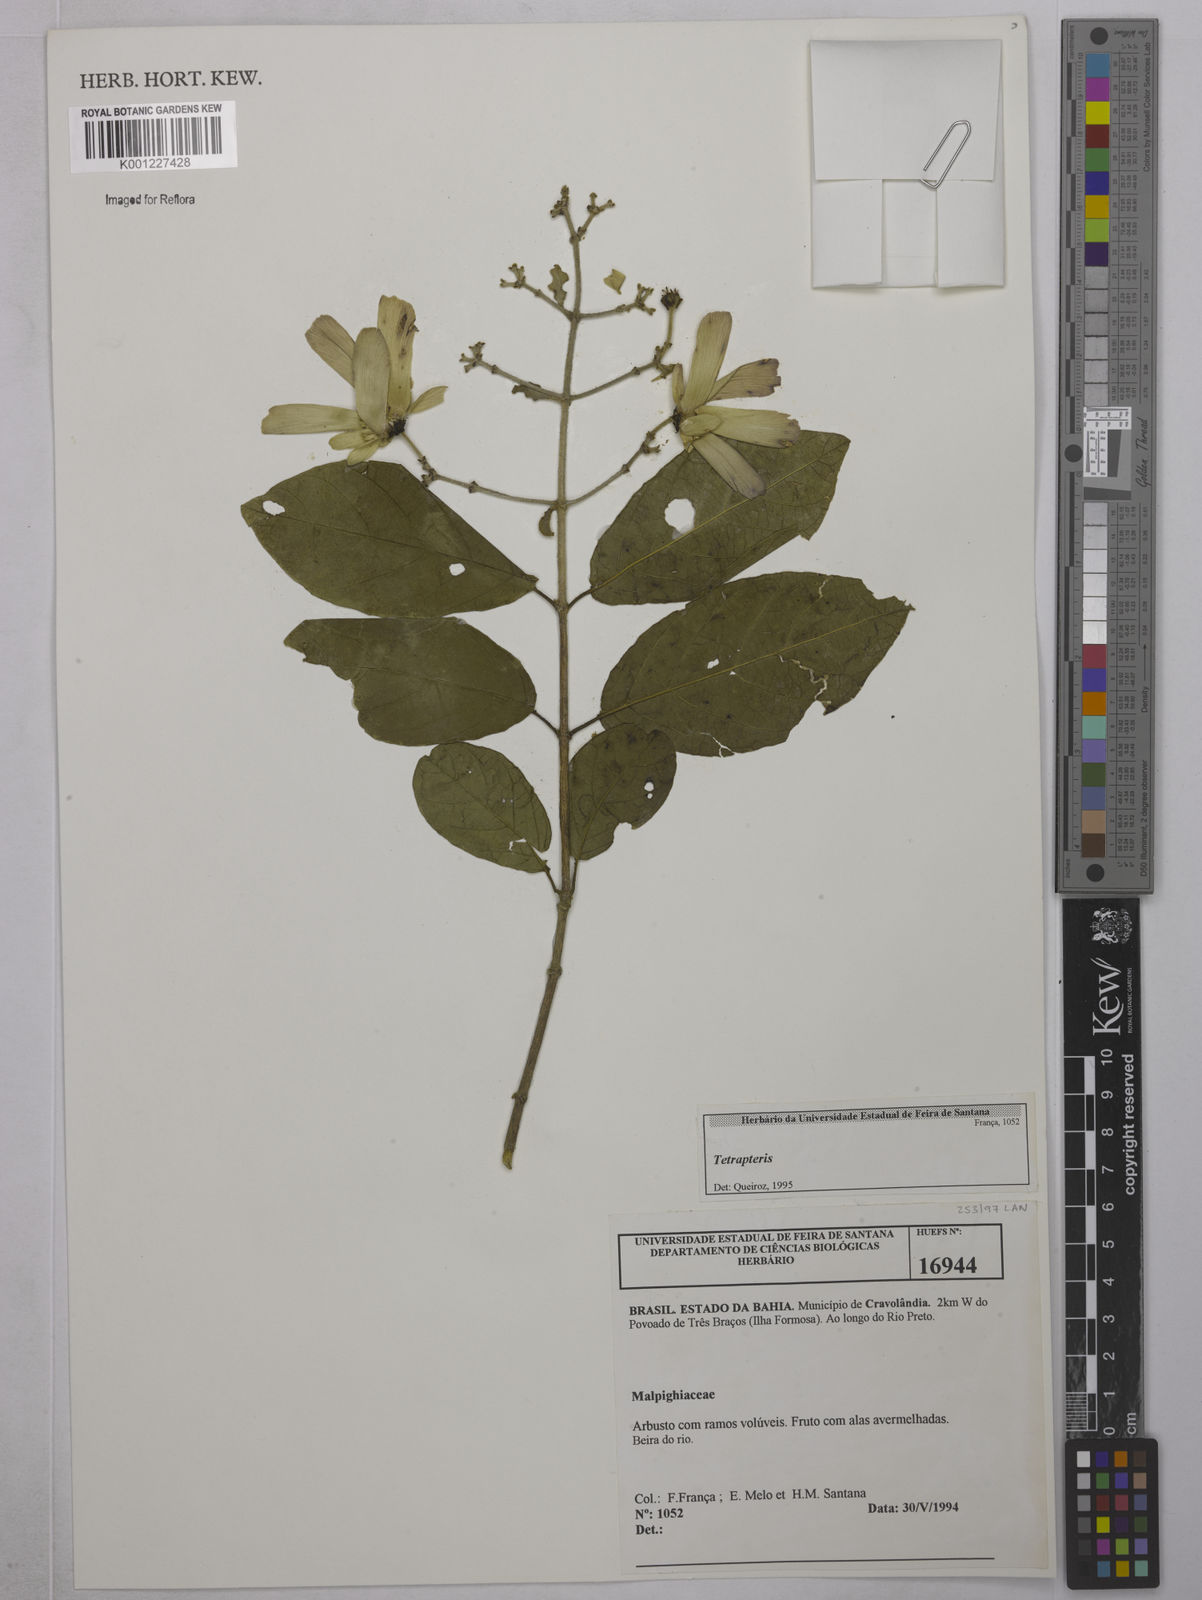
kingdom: Plantae
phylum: Tracheophyta
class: Magnoliopsida
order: Malpighiales
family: Malpighiaceae
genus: Tetrapterys
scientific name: Tetrapterys
